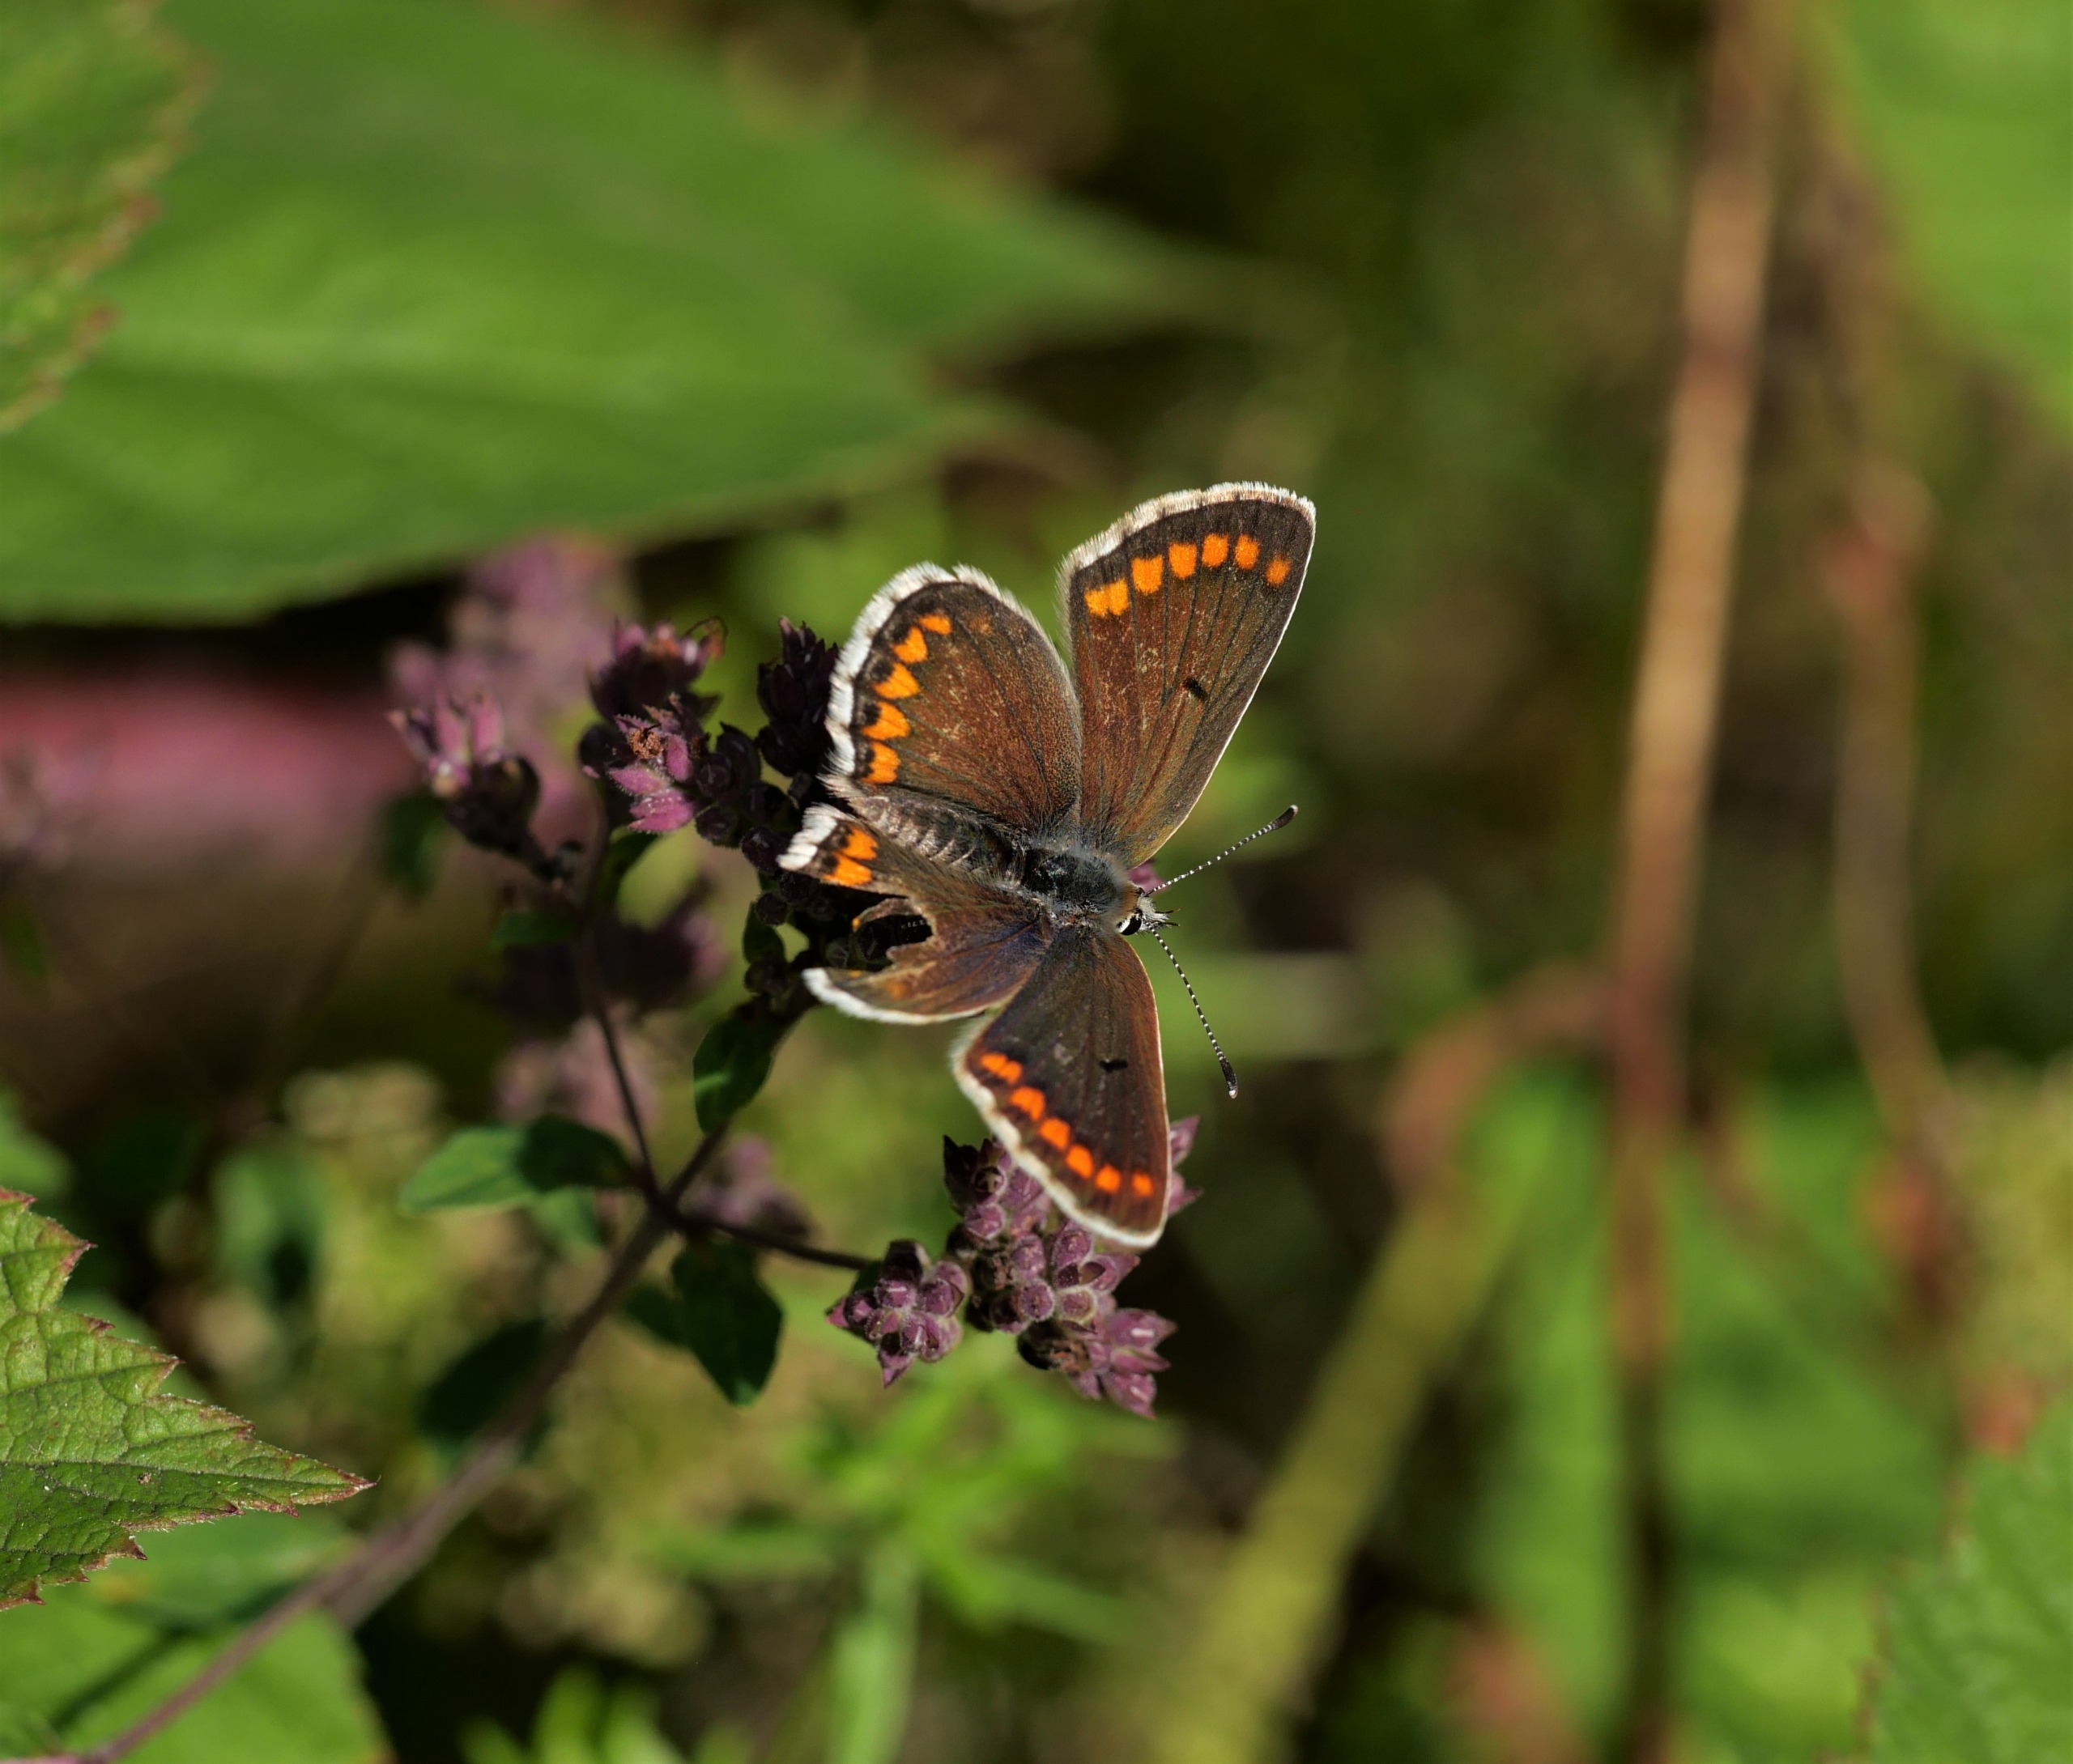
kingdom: Animalia
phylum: Arthropoda
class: Insecta
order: Lepidoptera
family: Lycaenidae
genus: Aricia
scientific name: Aricia agestis
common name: Rødplettet blåfugl
